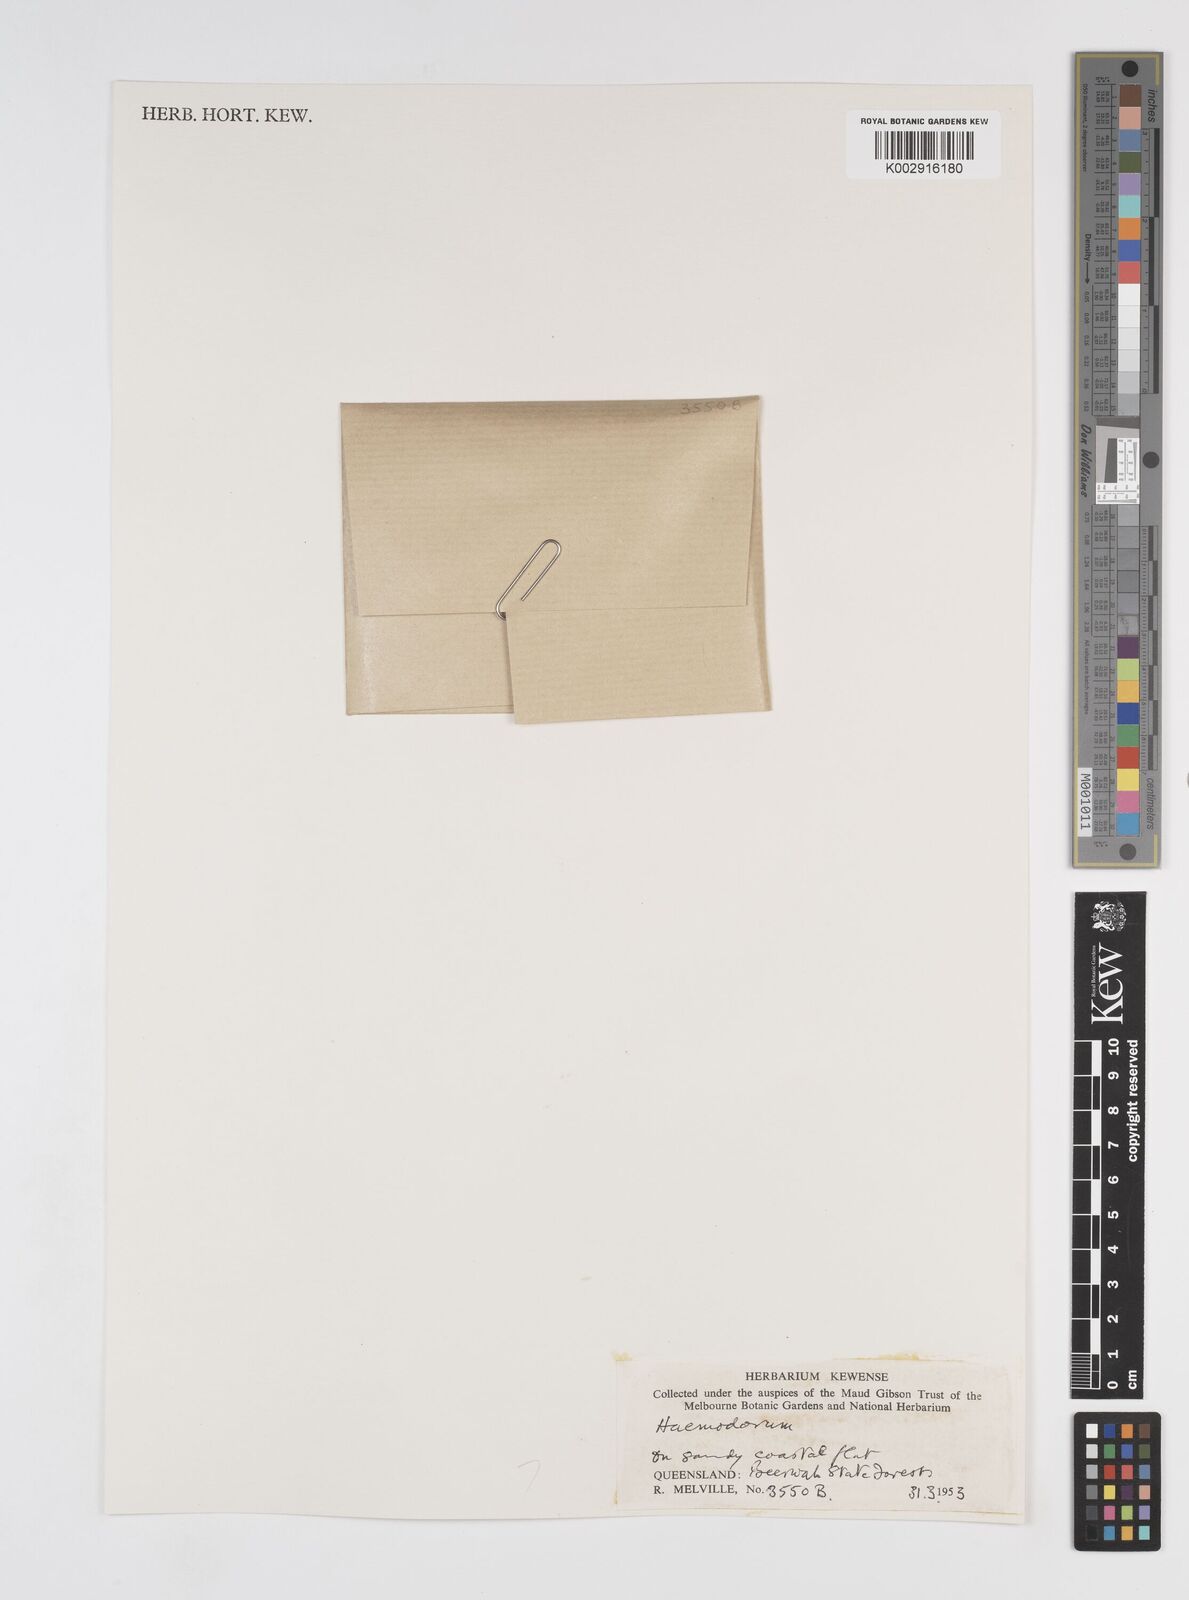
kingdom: Plantae
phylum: Tracheophyta
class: Liliopsida
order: Commelinales
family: Haemodoraceae
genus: Haemodorum
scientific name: Haemodorum
